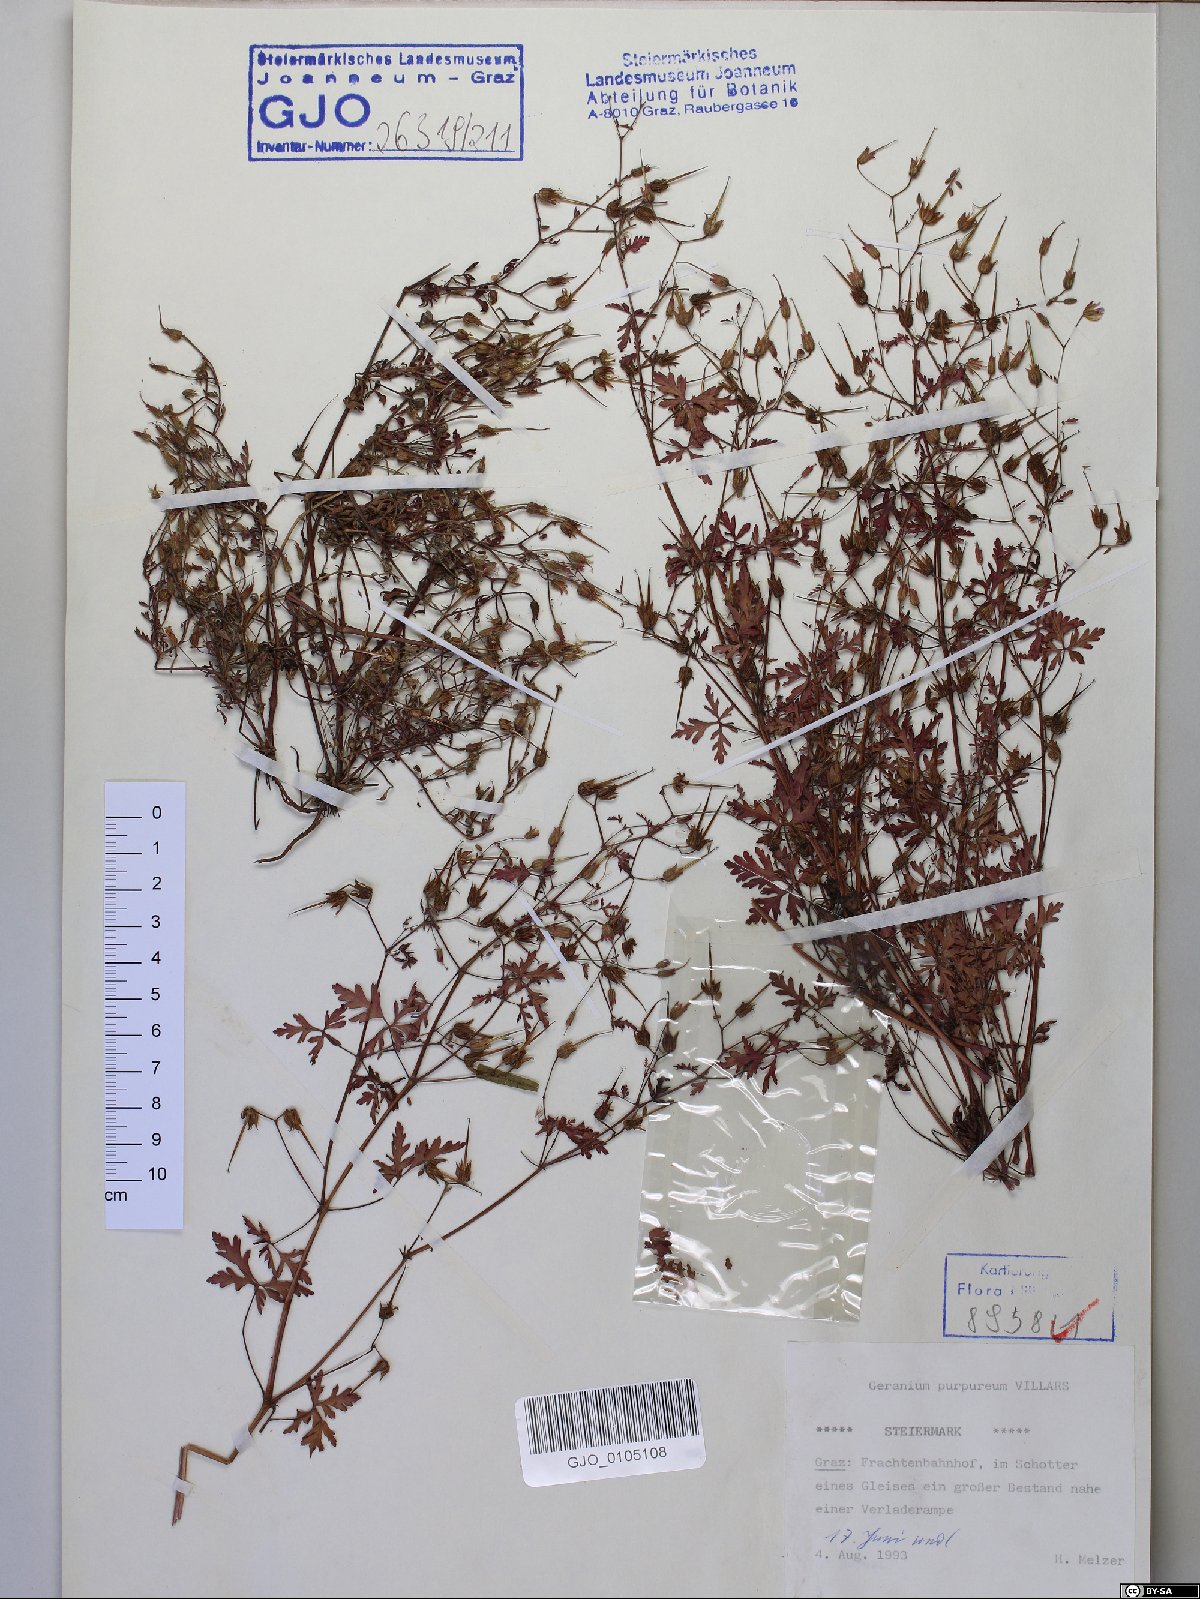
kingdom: Plantae
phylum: Tracheophyta
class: Magnoliopsida
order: Geraniales
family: Geraniaceae
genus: Geranium
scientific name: Geranium purpureum
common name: Little-robin
